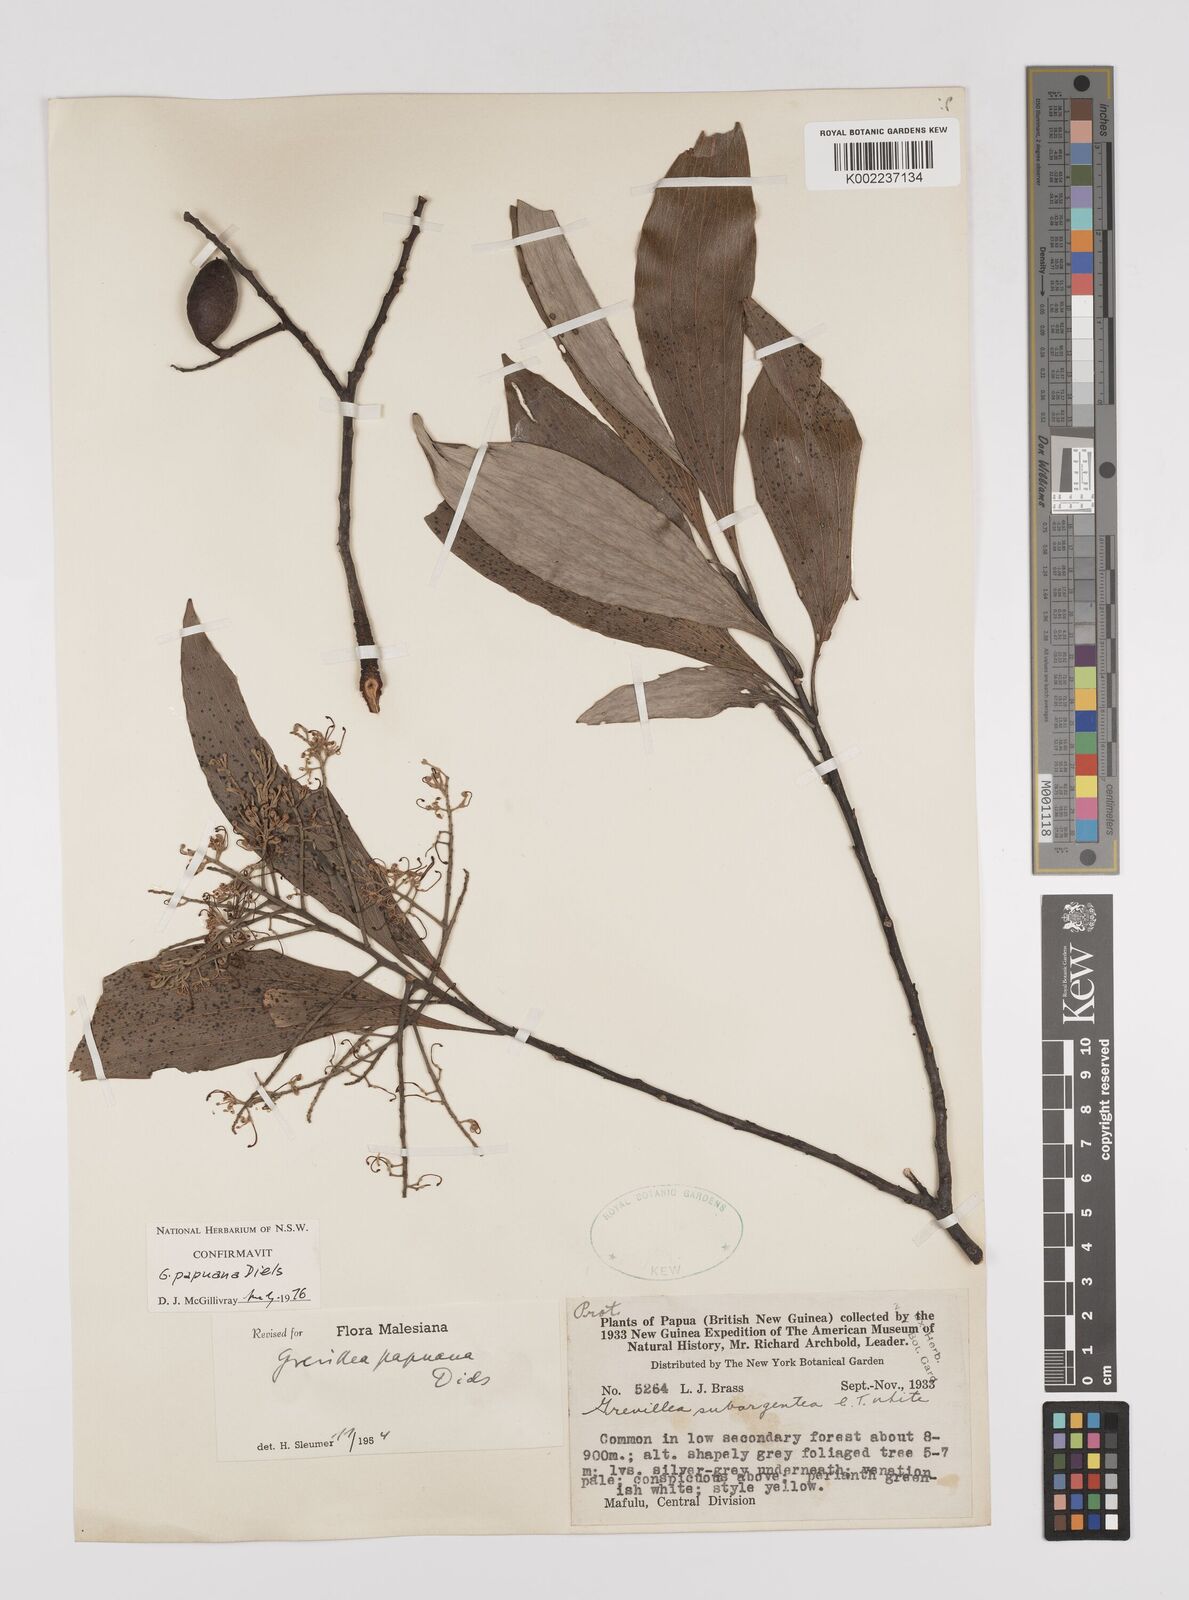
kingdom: Plantae
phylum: Tracheophyta
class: Magnoliopsida
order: Proteales
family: Proteaceae
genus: Grevillea
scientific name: Grevillea papuana
